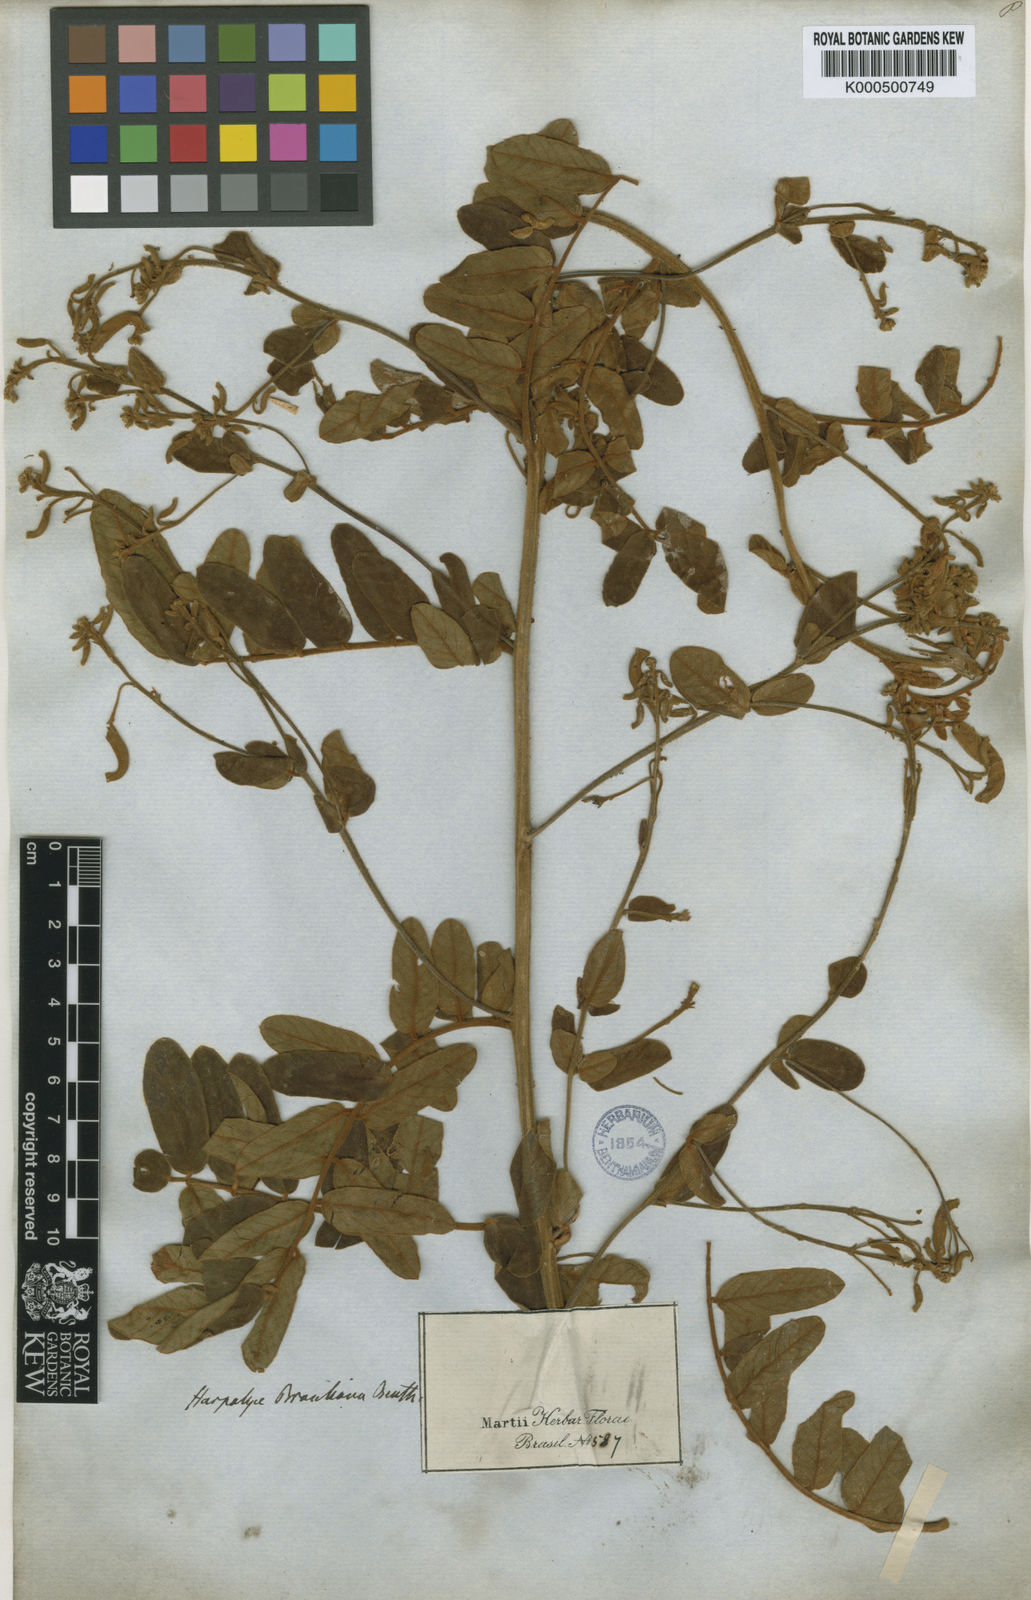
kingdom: Plantae
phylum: Tracheophyta
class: Magnoliopsida
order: Fabales
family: Fabaceae
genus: Harpalyce
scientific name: Harpalyce brasiliana
